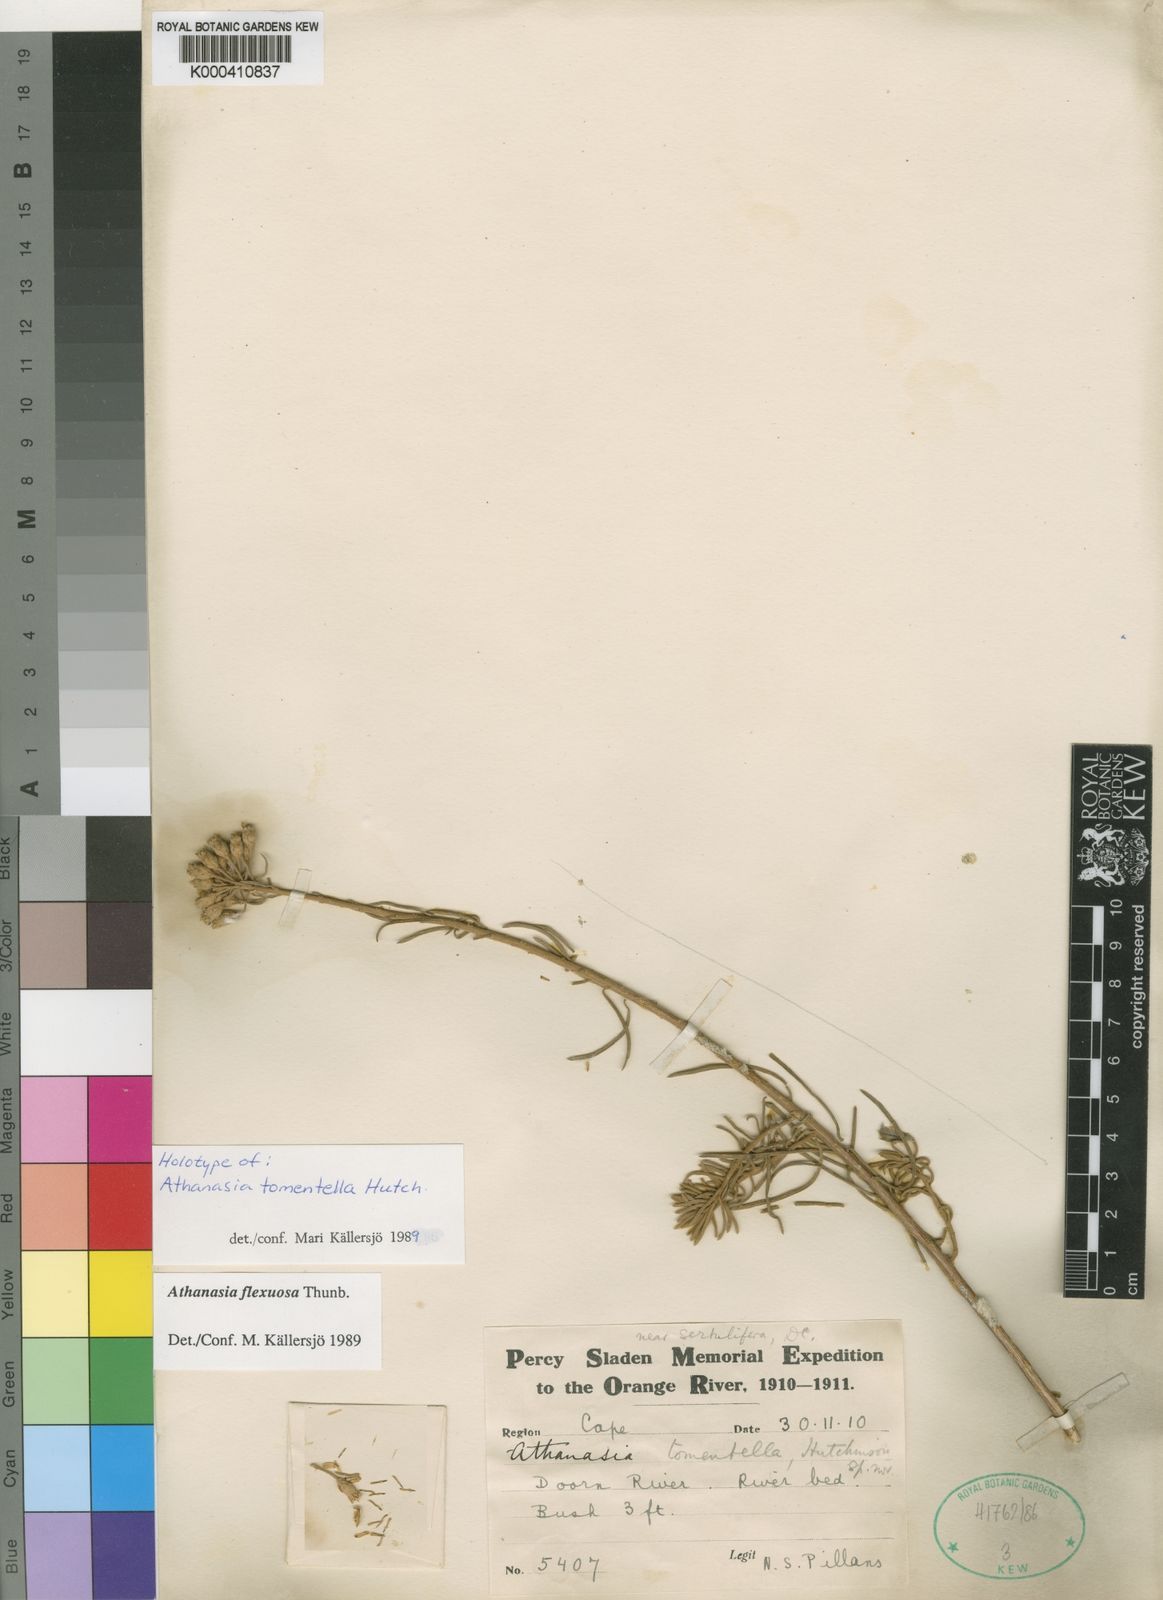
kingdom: Plantae
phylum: Tracheophyta
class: Magnoliopsida
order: Asterales
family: Asteraceae
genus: Athanasia
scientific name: Athanasia flexuosa
